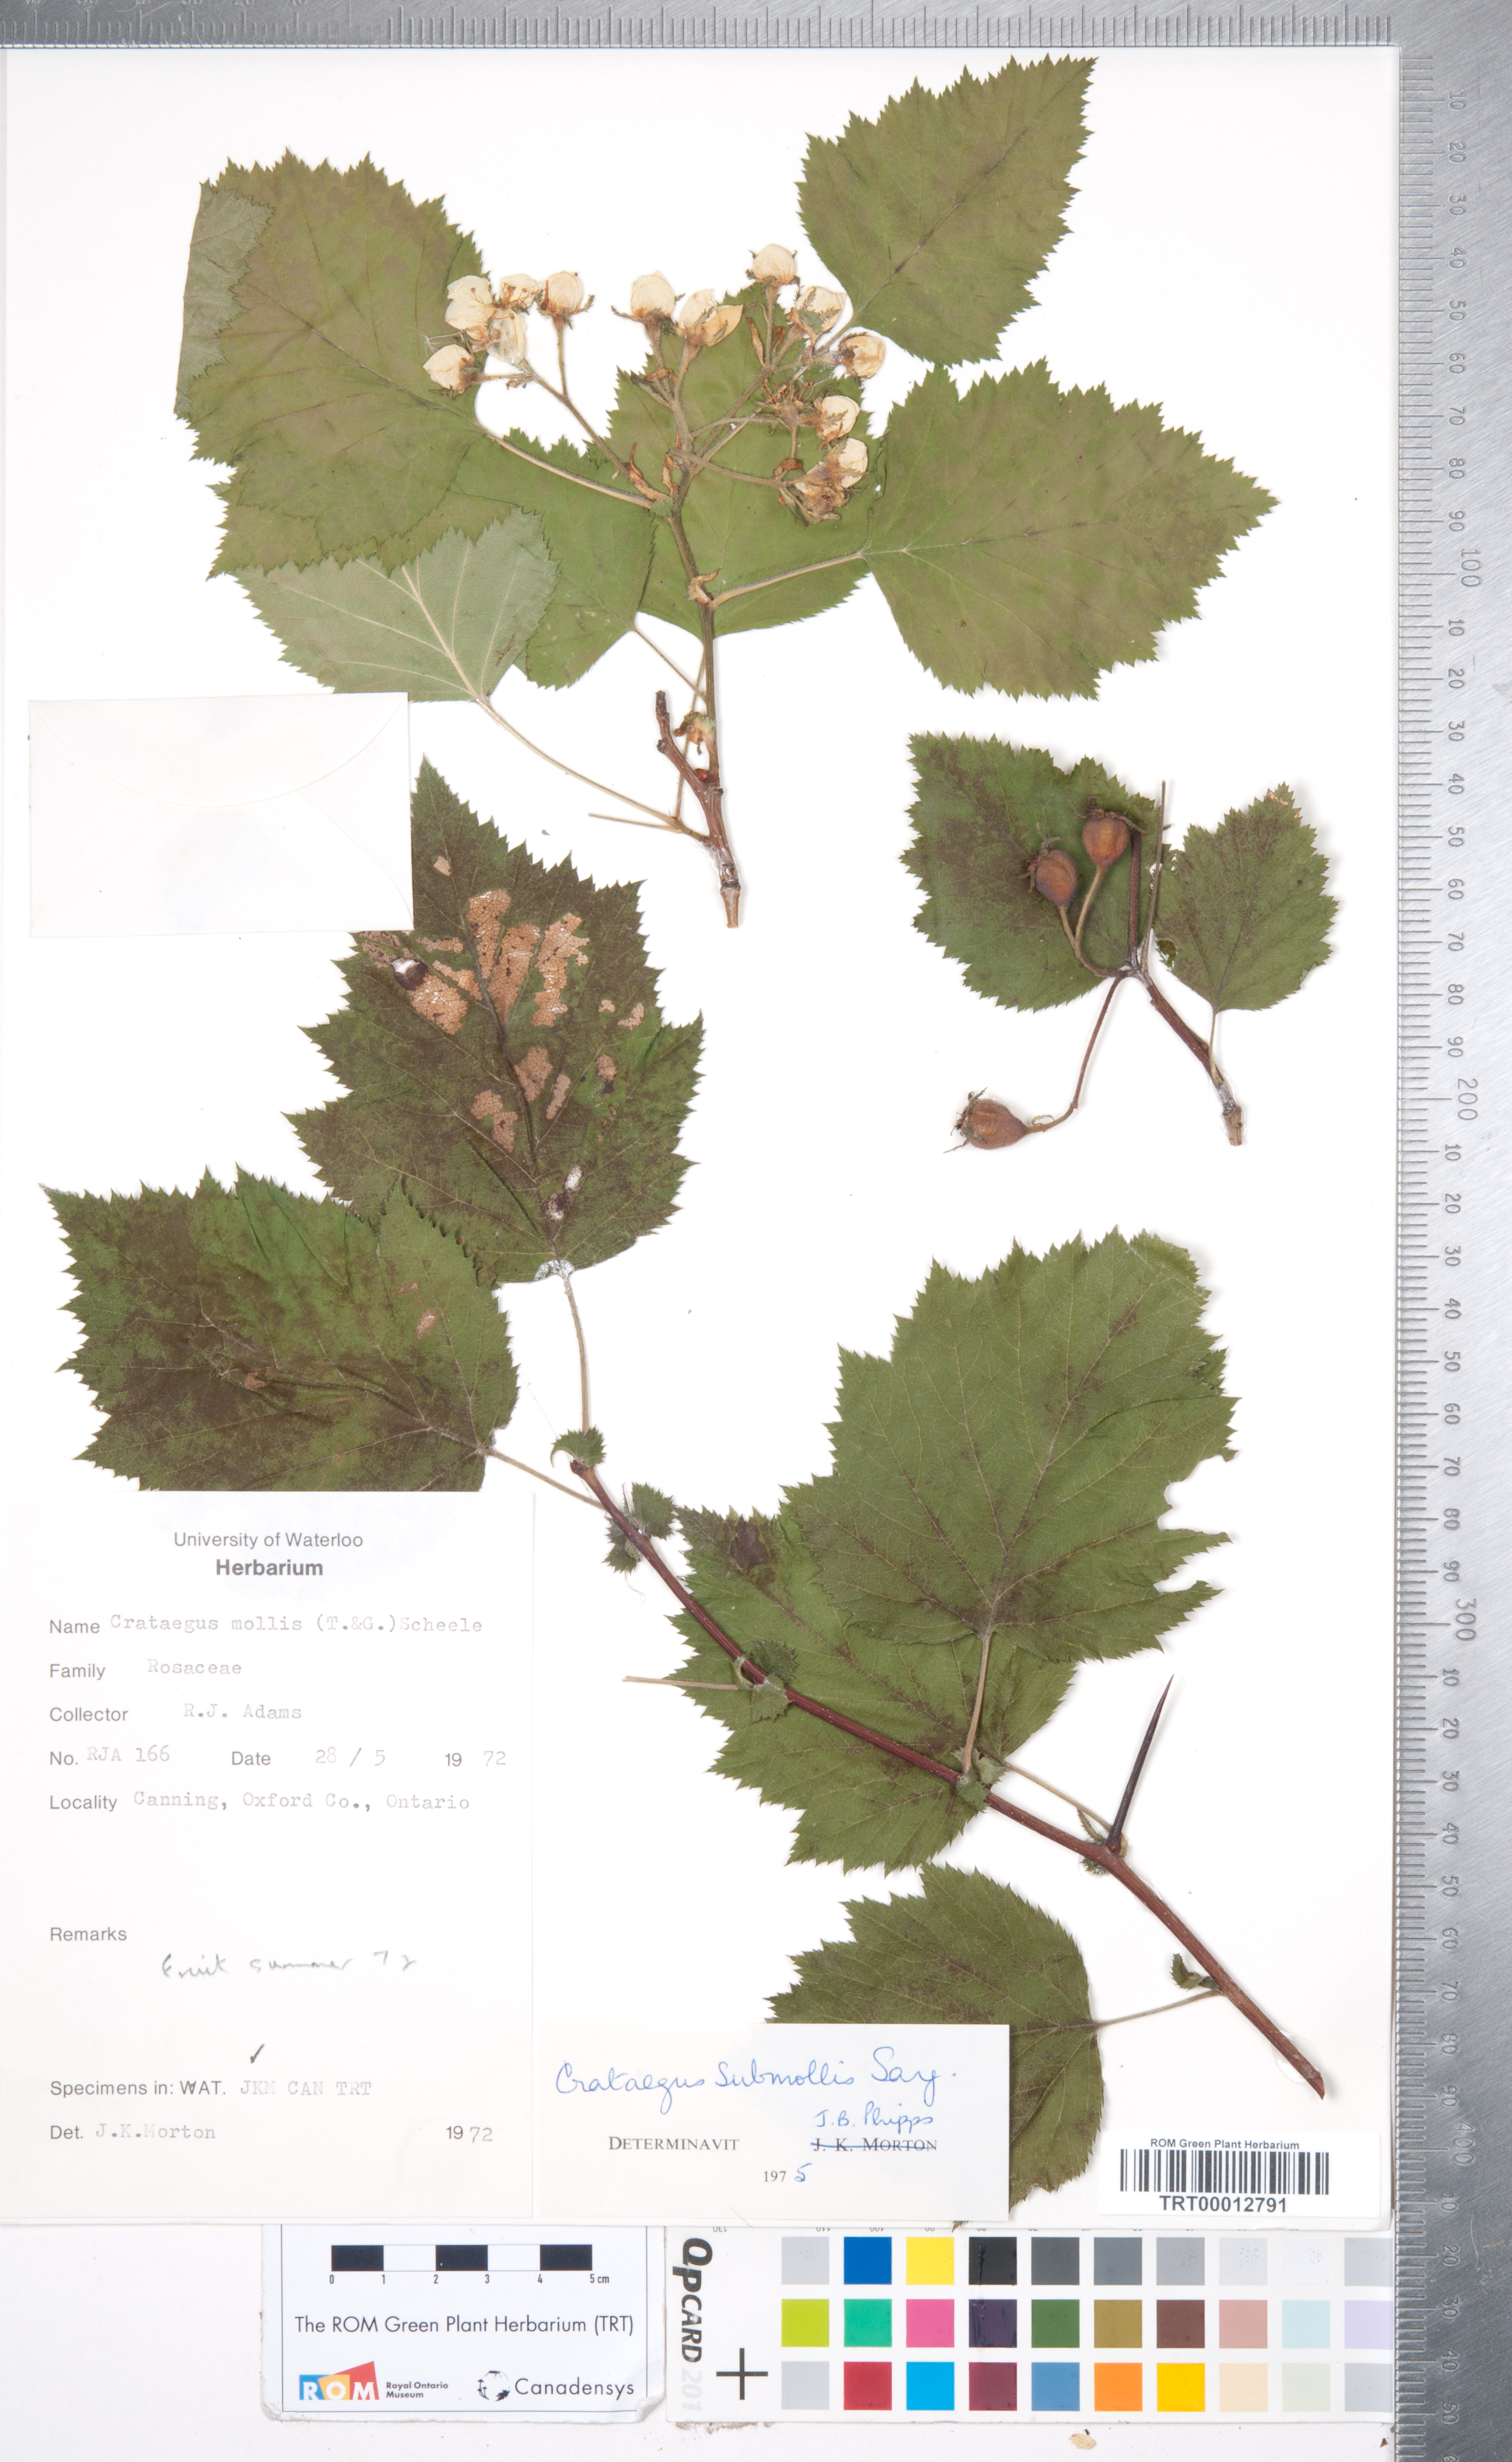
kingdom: Plantae
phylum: Tracheophyta
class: Magnoliopsida
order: Rosales
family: Rosaceae
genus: Crataegus
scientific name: Crataegus submollis
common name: Hairy cockspurthorn
